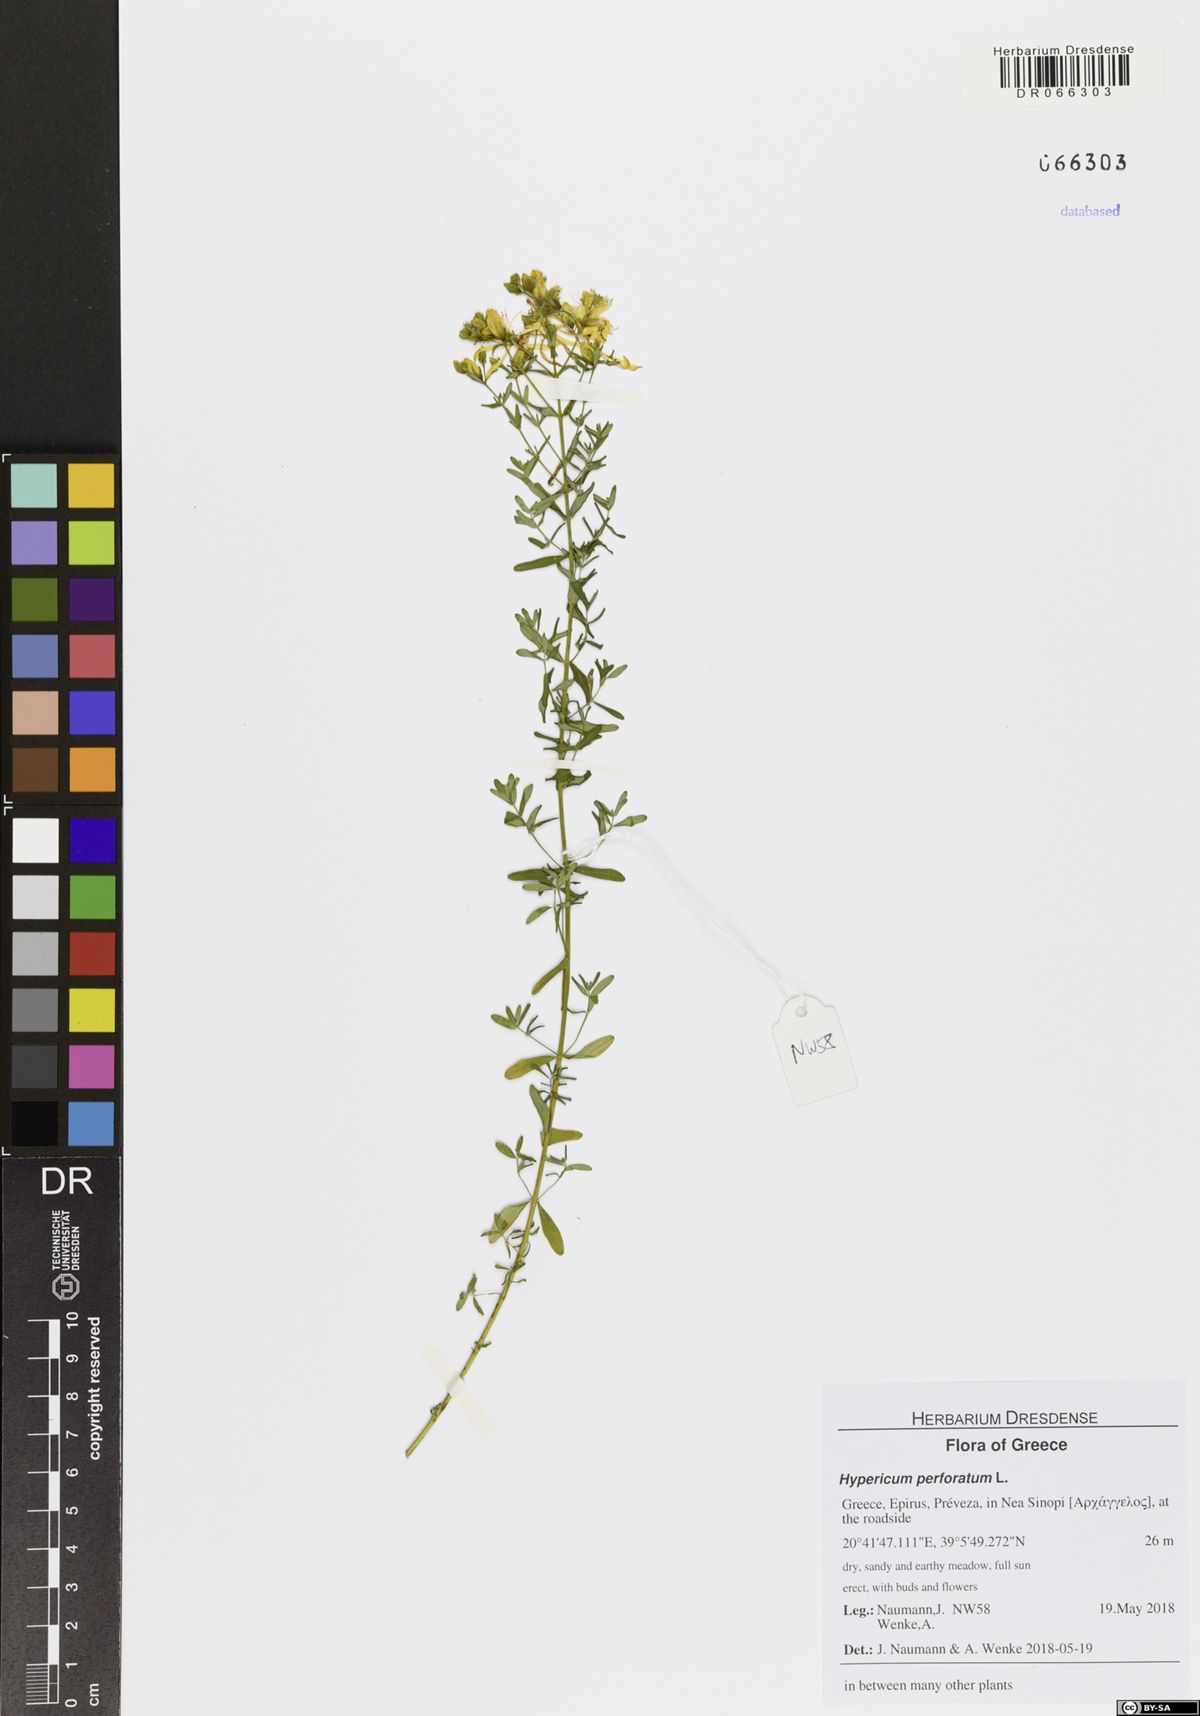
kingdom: Plantae
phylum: Tracheophyta
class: Magnoliopsida
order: Malpighiales
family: Hypericaceae
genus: Hypericum
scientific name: Hypericum perforatum
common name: Common st. johnswort
